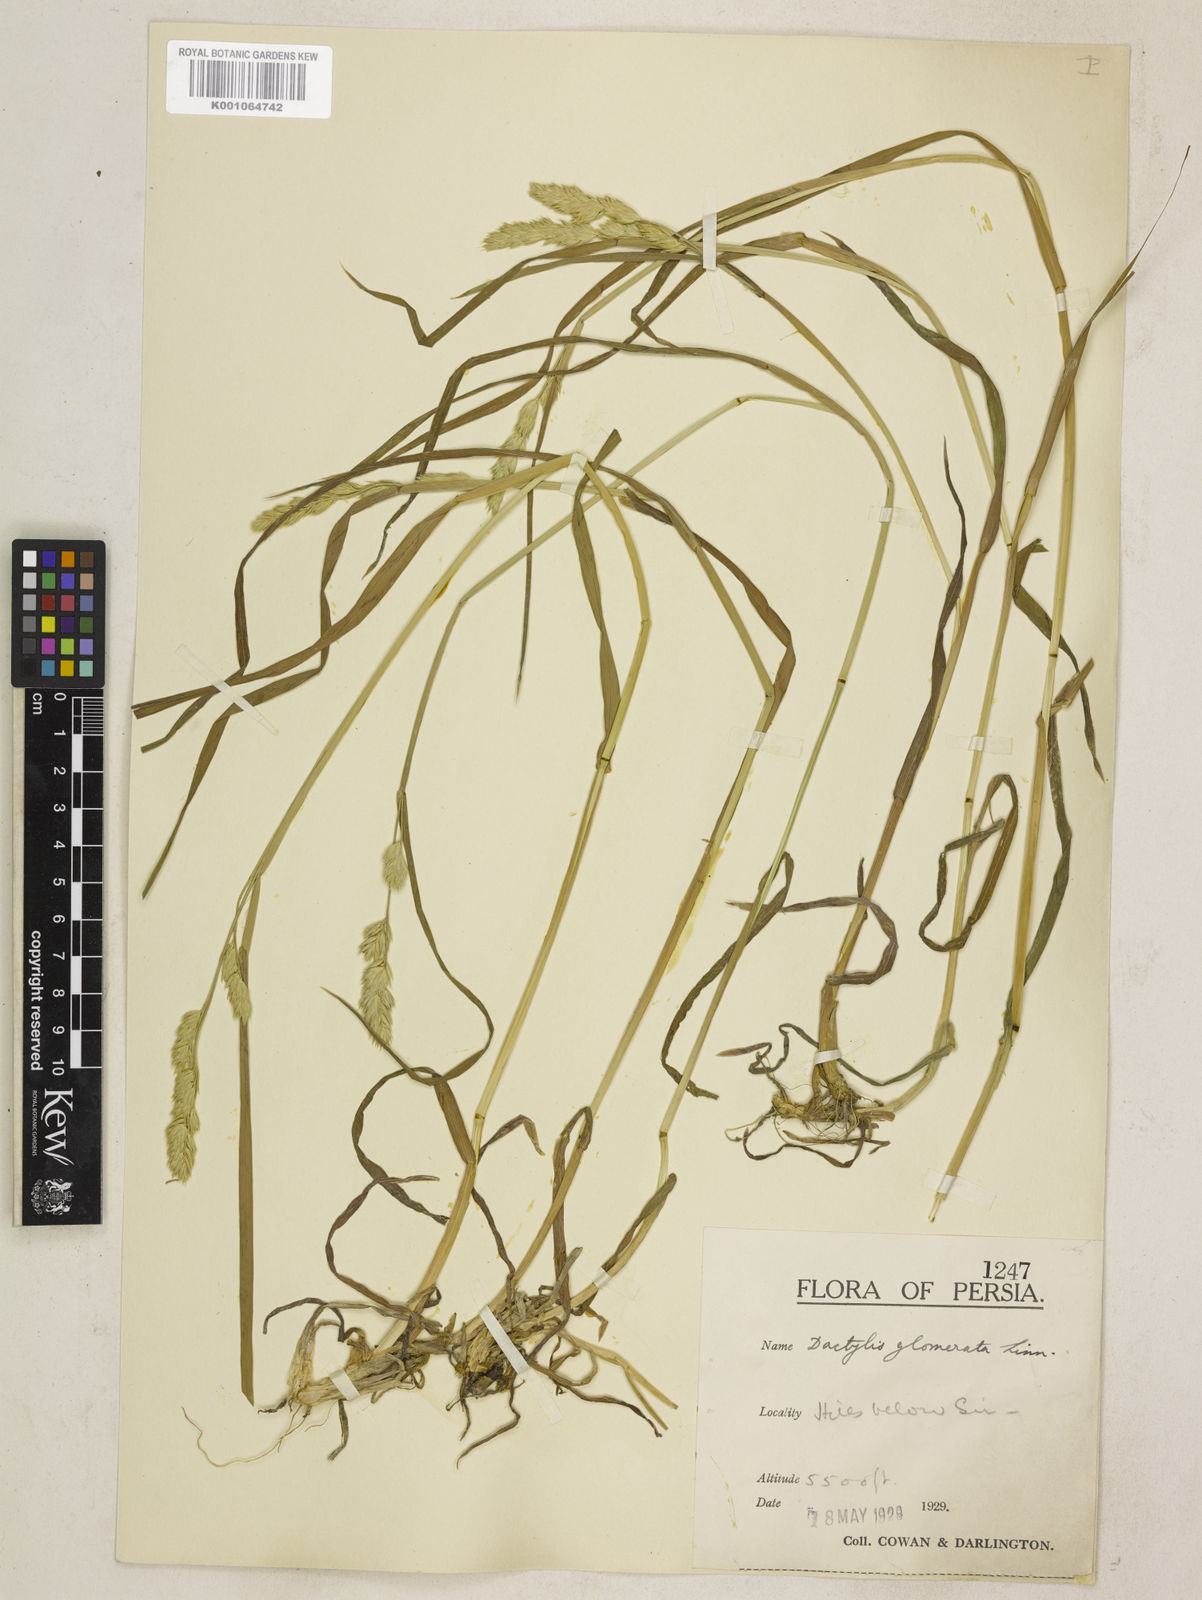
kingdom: Plantae
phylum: Tracheophyta
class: Liliopsida
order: Poales
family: Poaceae
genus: Dactylis
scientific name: Dactylis glomerata
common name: Orchardgrass
